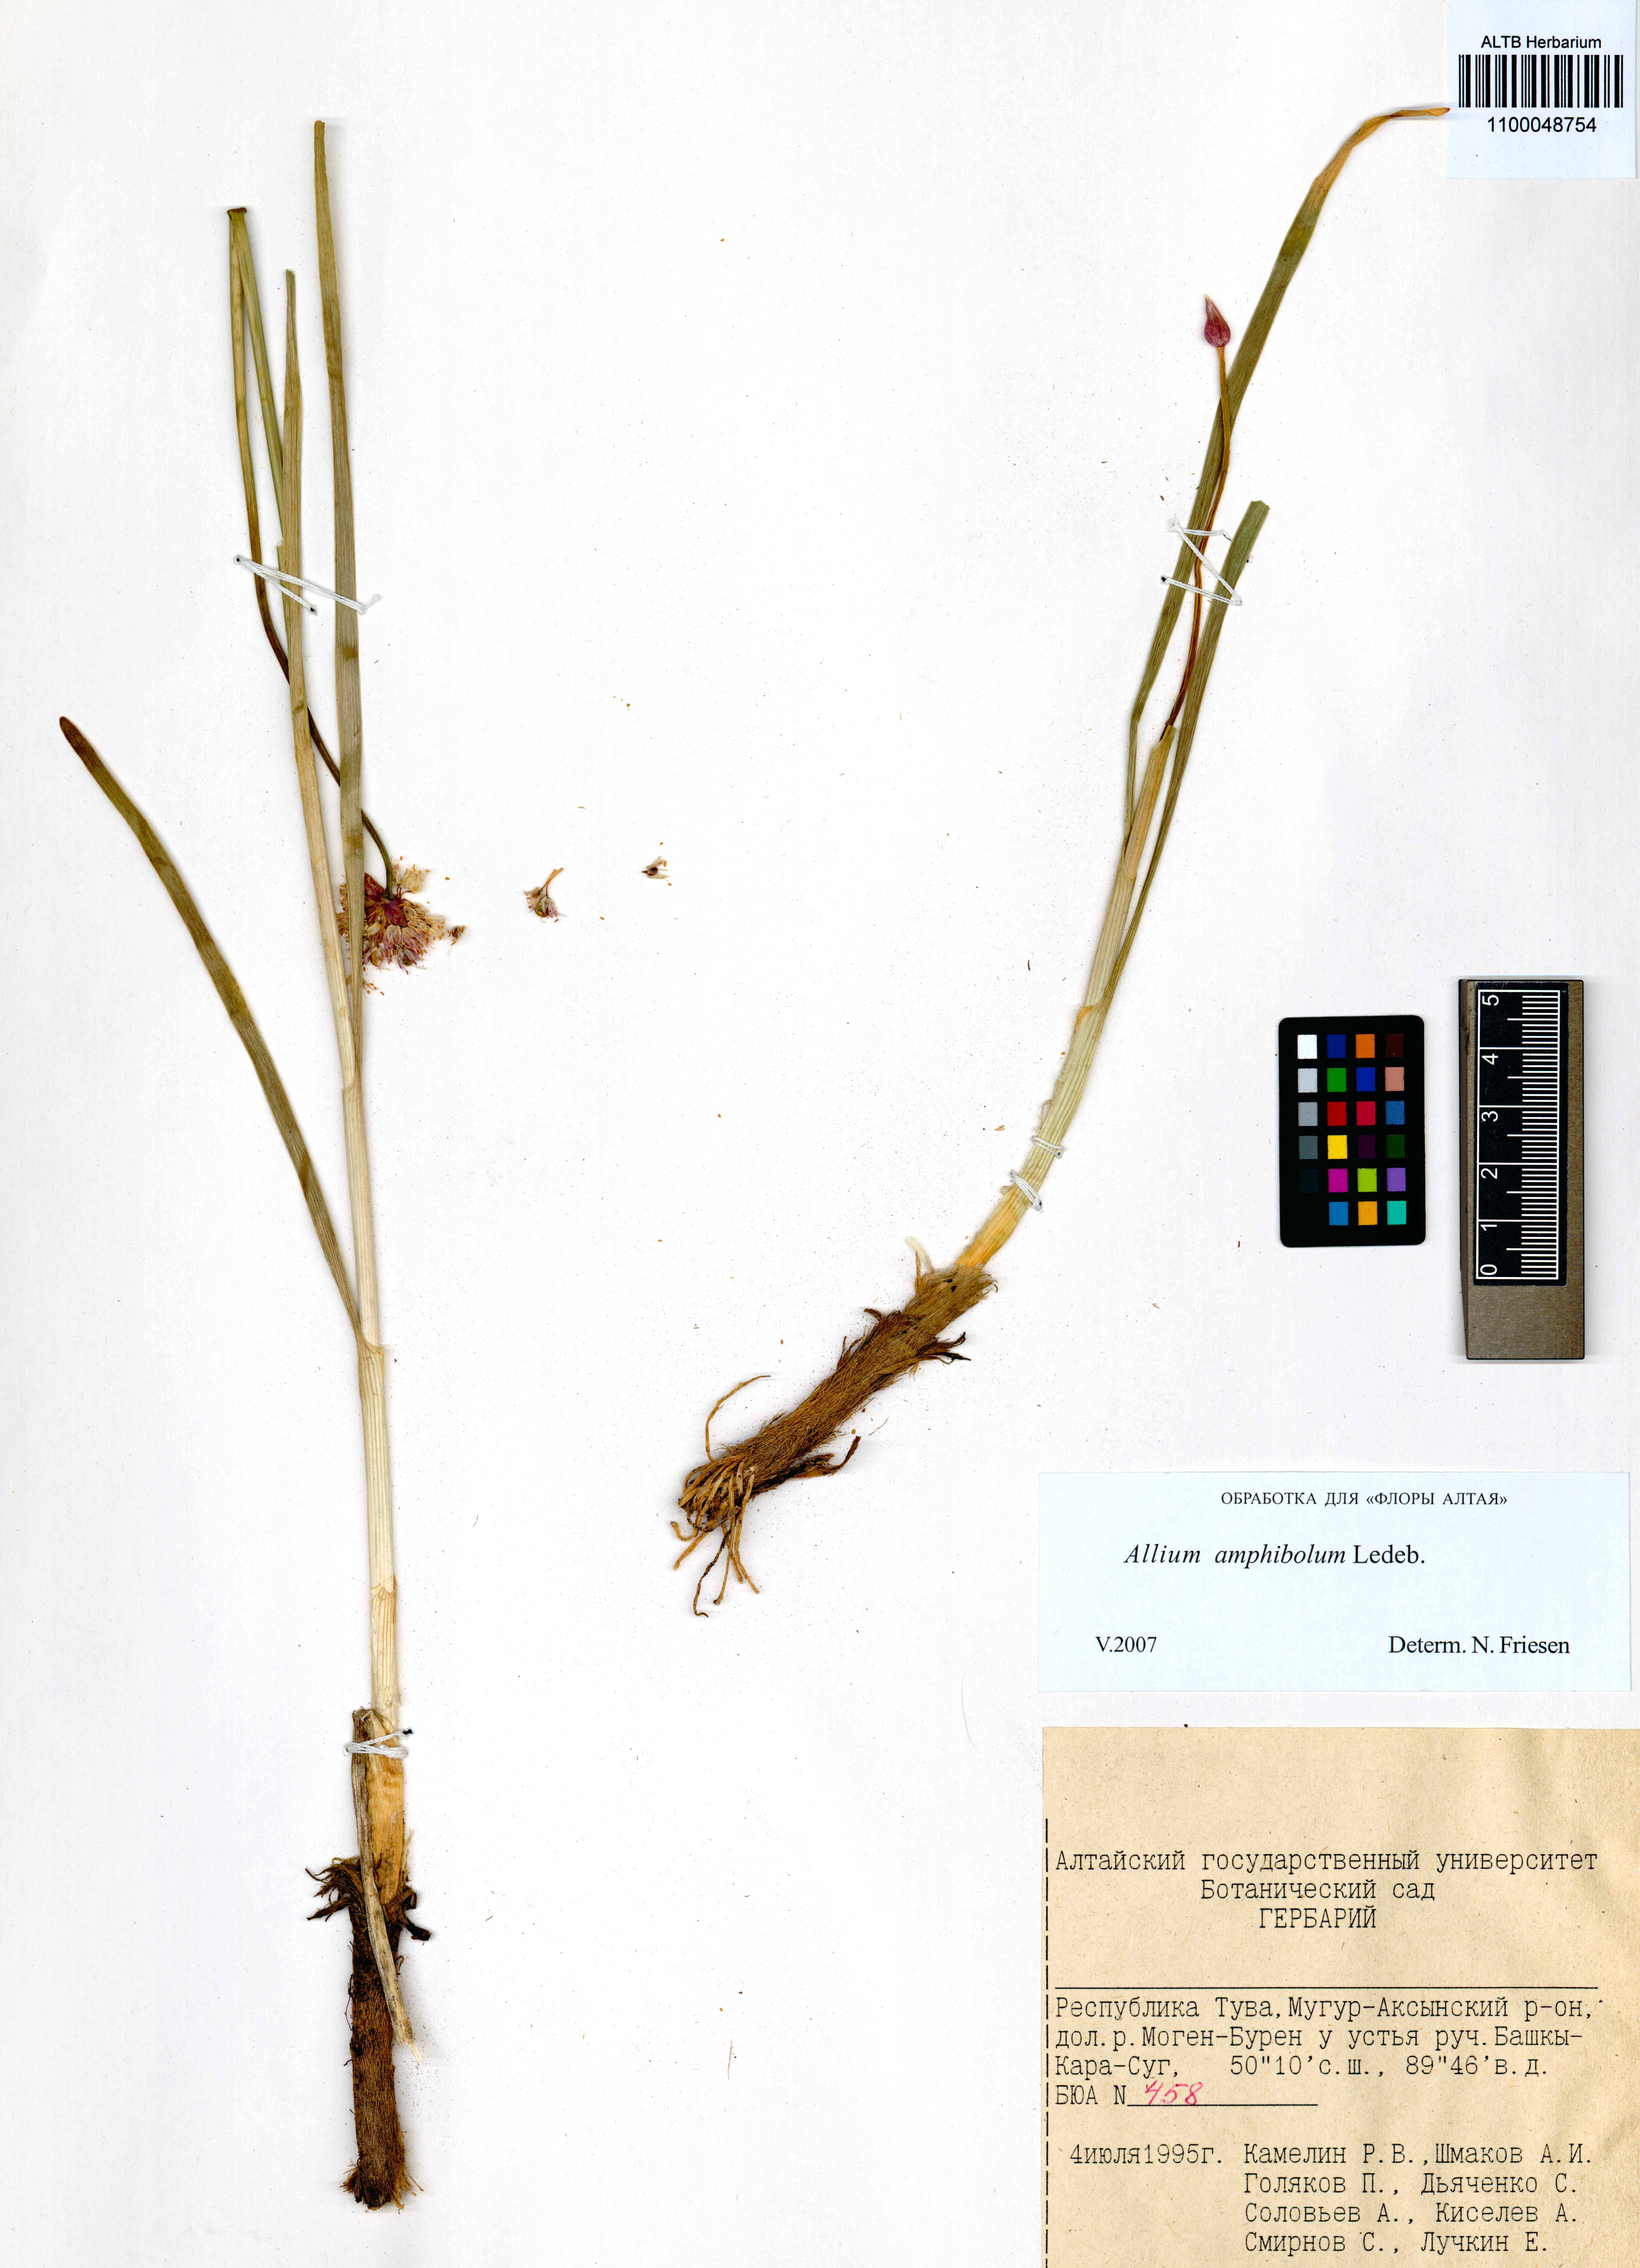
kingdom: Plantae
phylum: Tracheophyta
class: Liliopsida
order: Asparagales
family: Amaryllidaceae
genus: Allium
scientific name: Allium amphibolum
